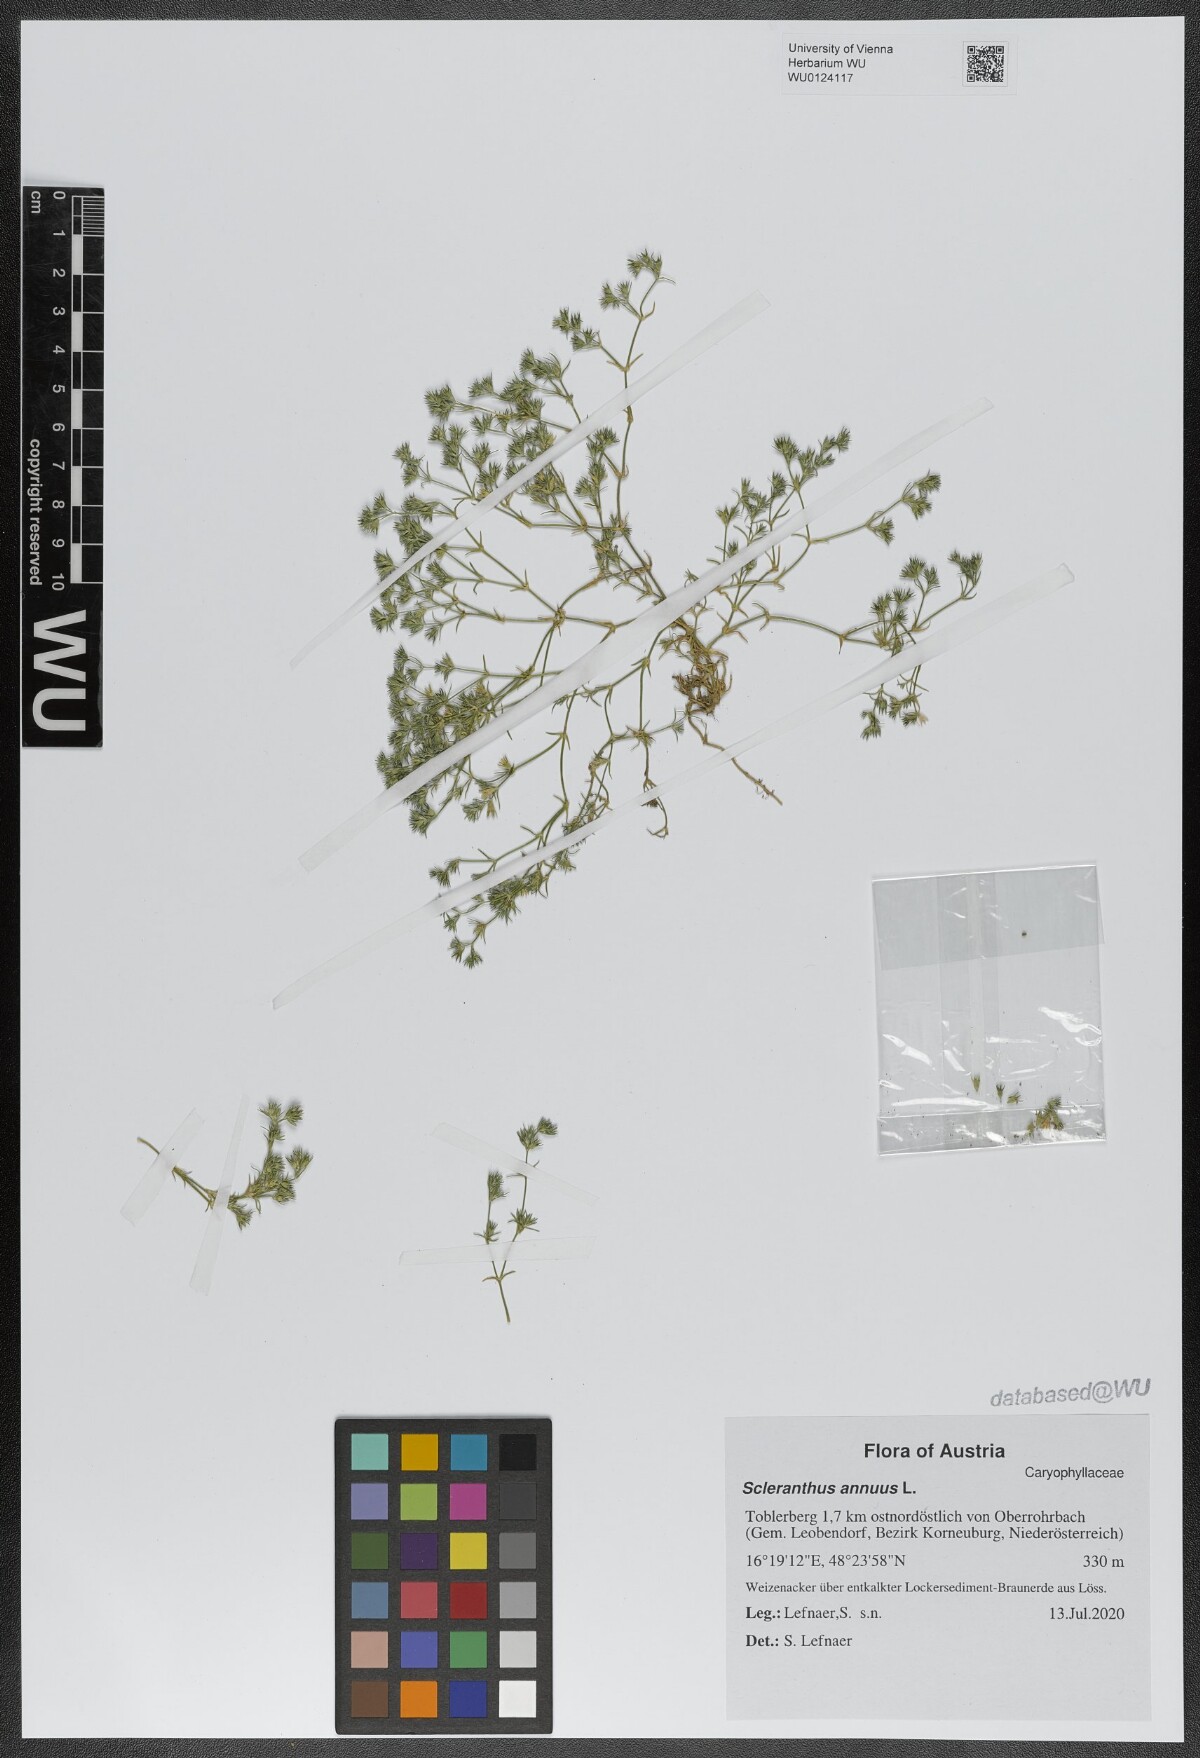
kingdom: Plantae
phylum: Tracheophyta
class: Magnoliopsida
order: Caryophyllales
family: Caryophyllaceae
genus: Scleranthus
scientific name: Scleranthus annuus
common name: Annual knawel
